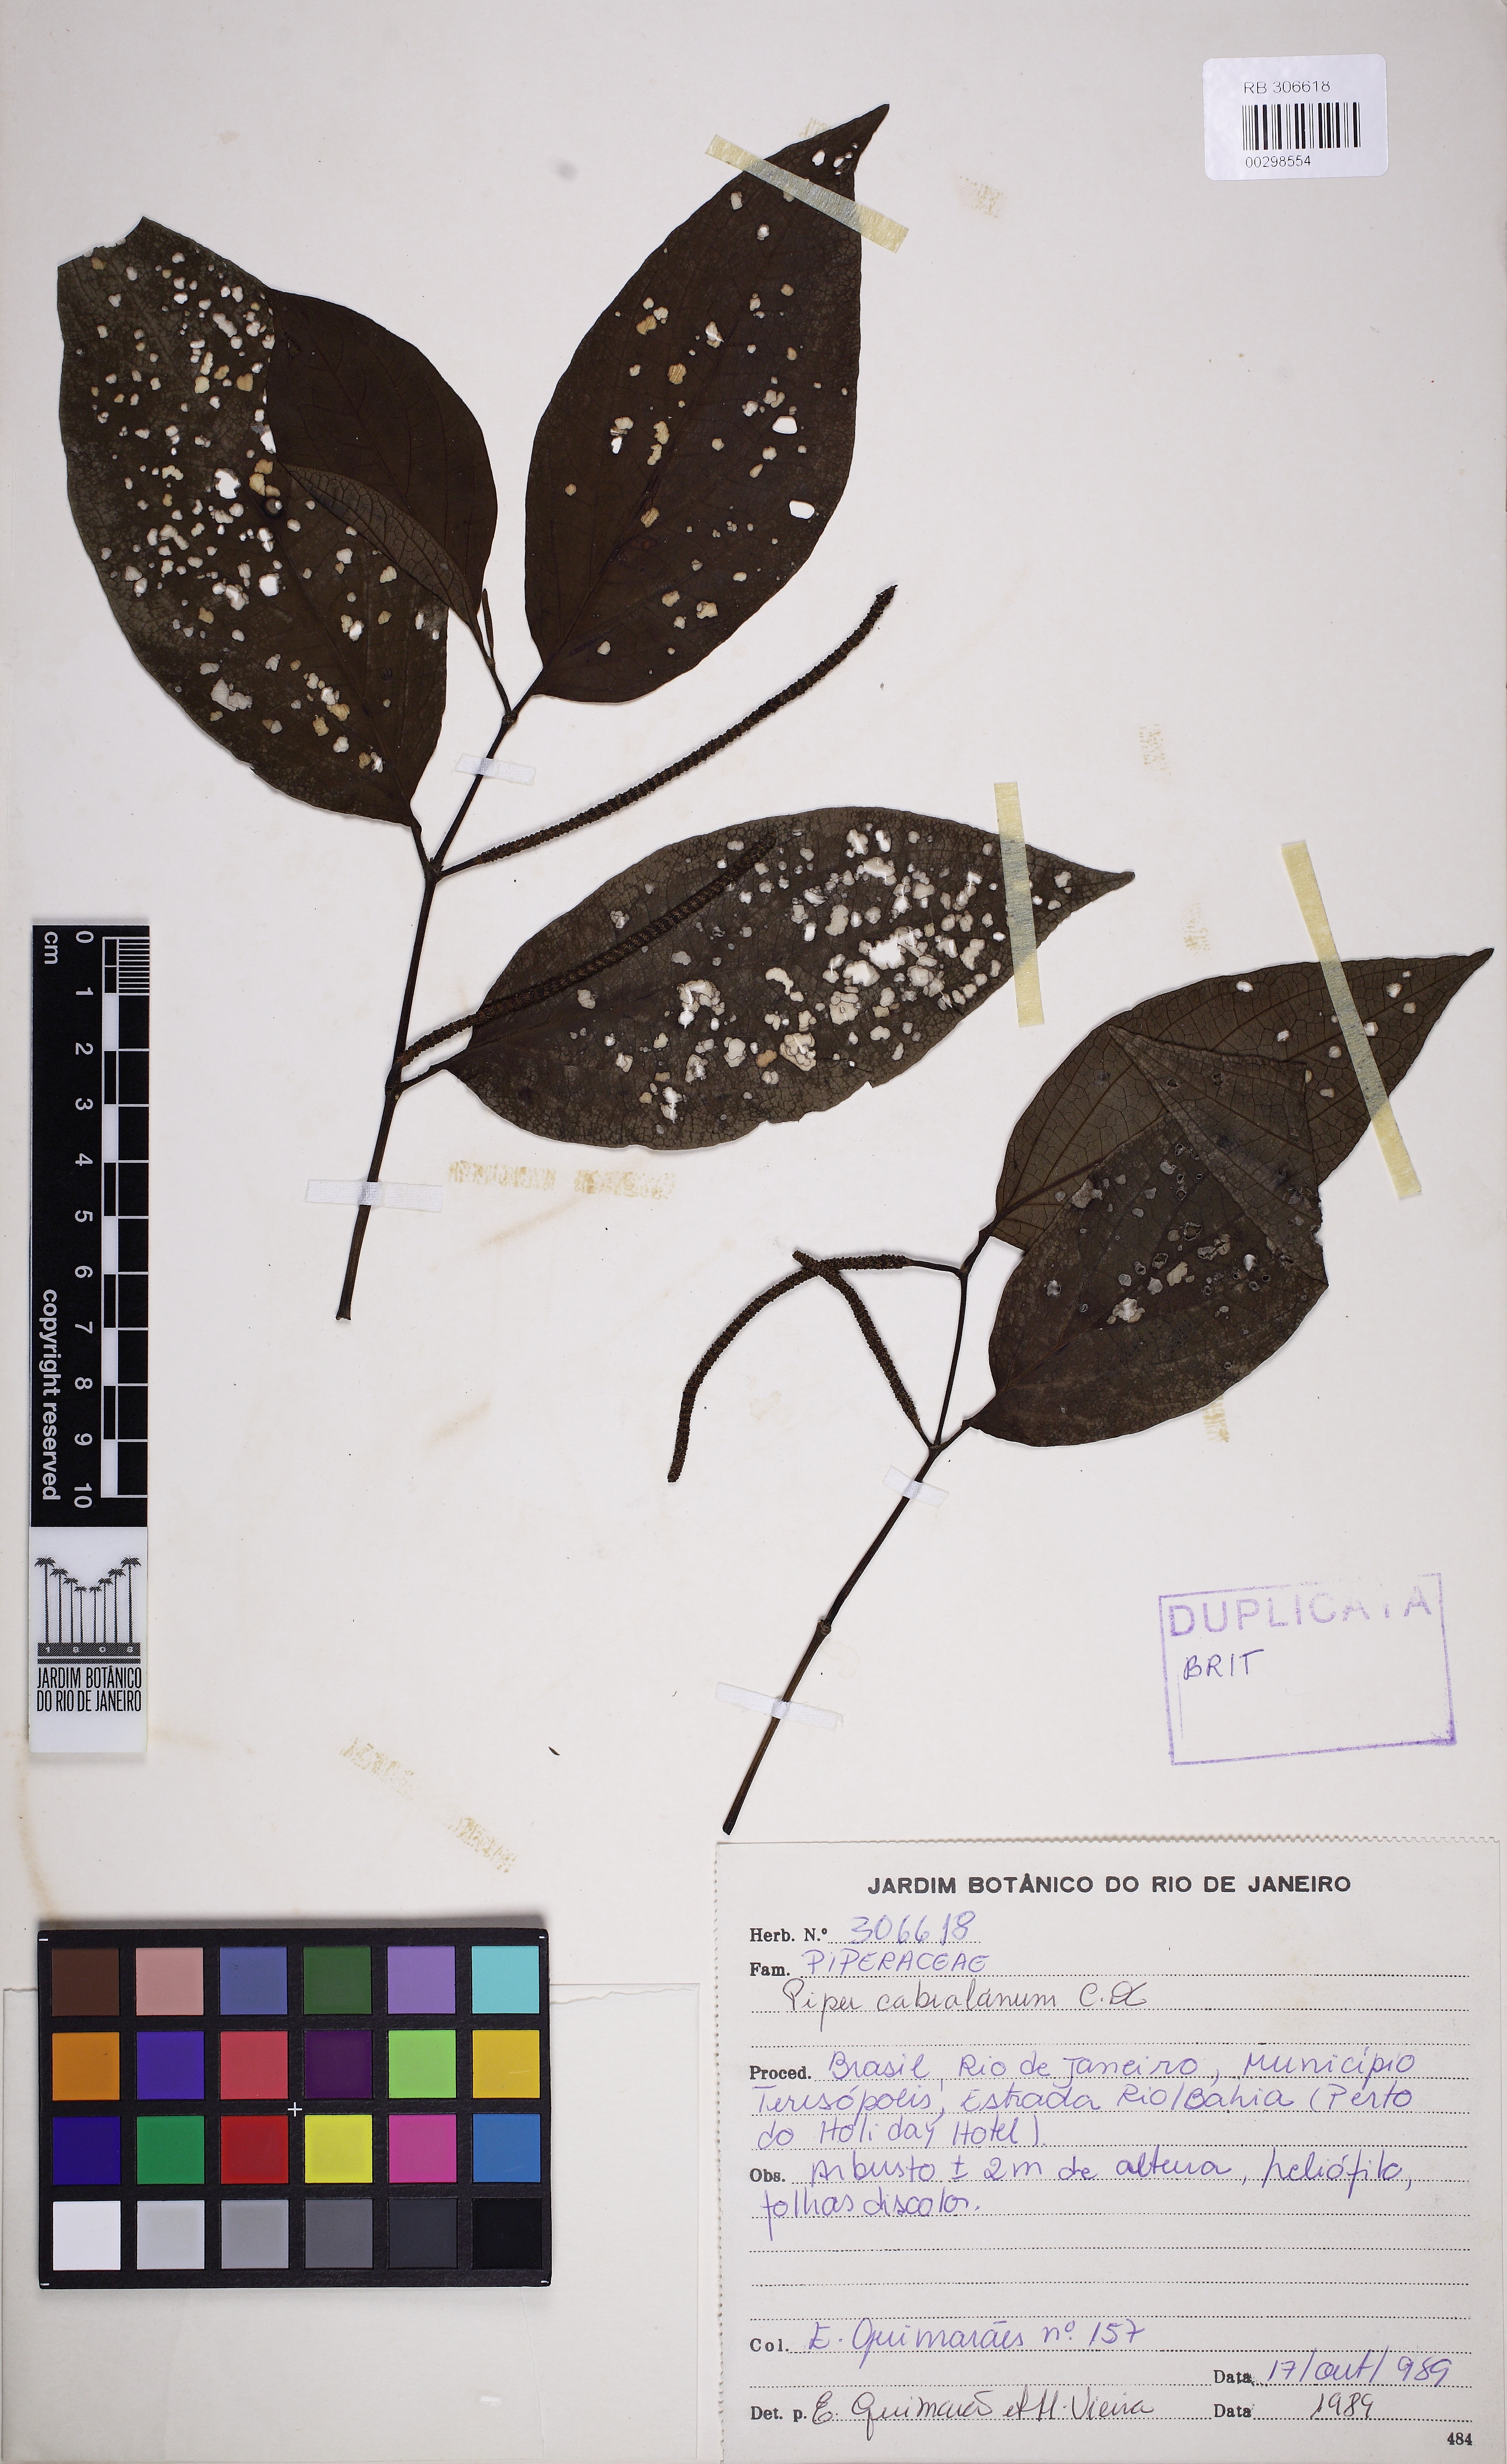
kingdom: Plantae
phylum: Tracheophyta
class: Magnoliopsida
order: Piperales
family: Piperaceae
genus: Piper
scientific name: Piper cabralanum
